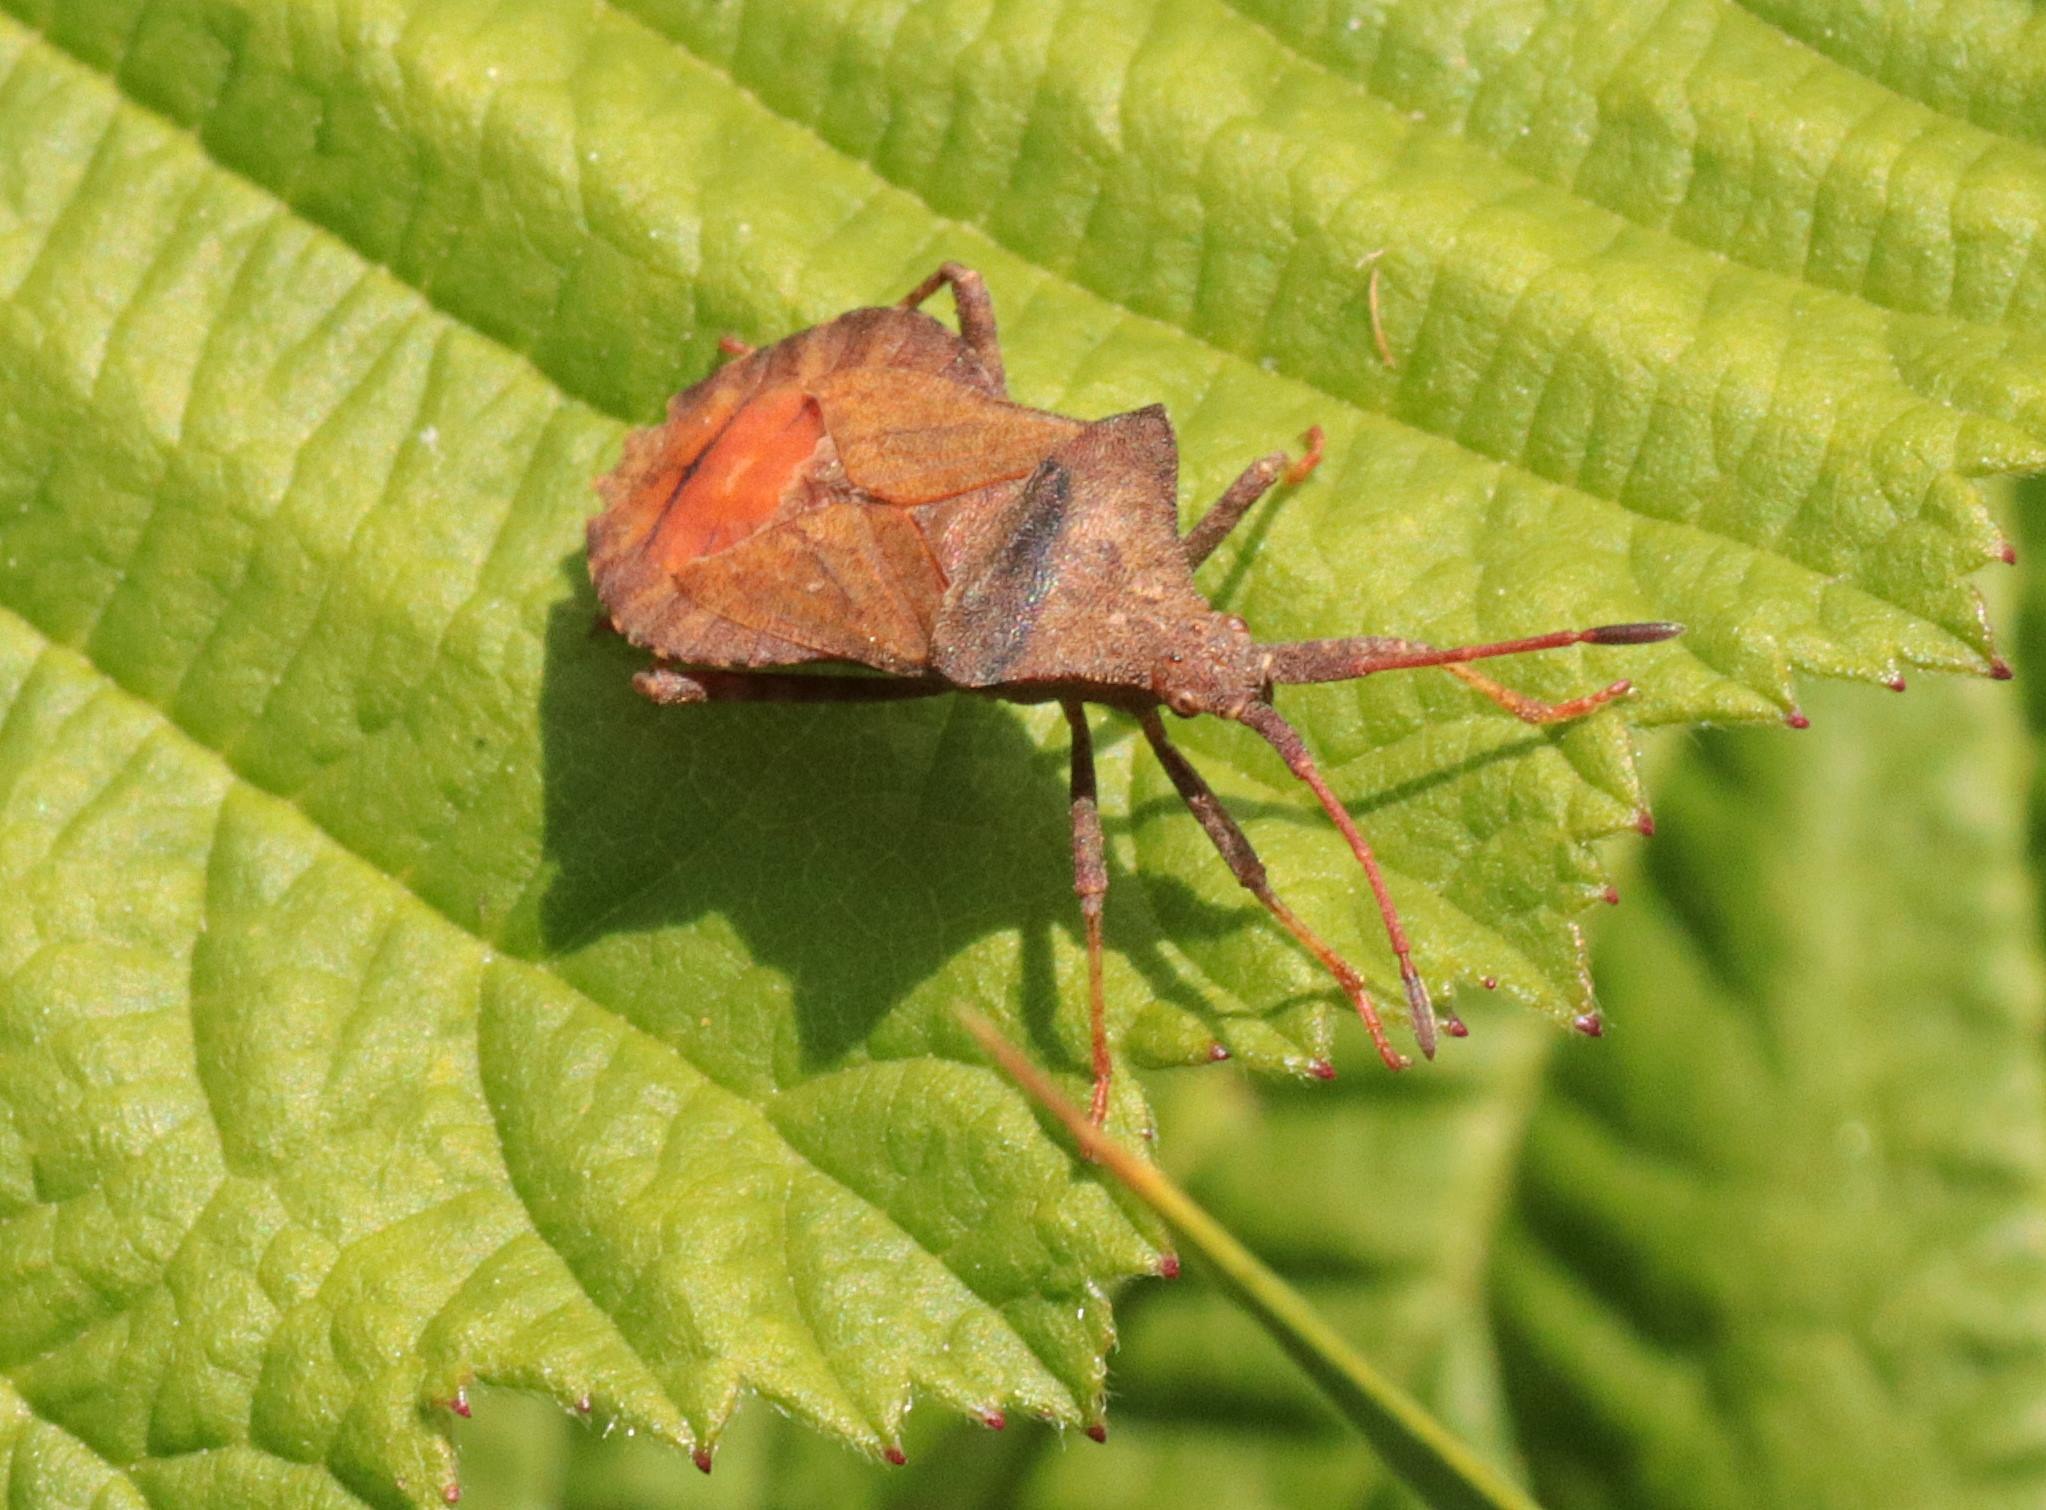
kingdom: Animalia
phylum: Arthropoda
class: Insecta
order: Hemiptera
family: Coreidae
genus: Coreus
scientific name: Coreus marginatus
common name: Skræppetæge
